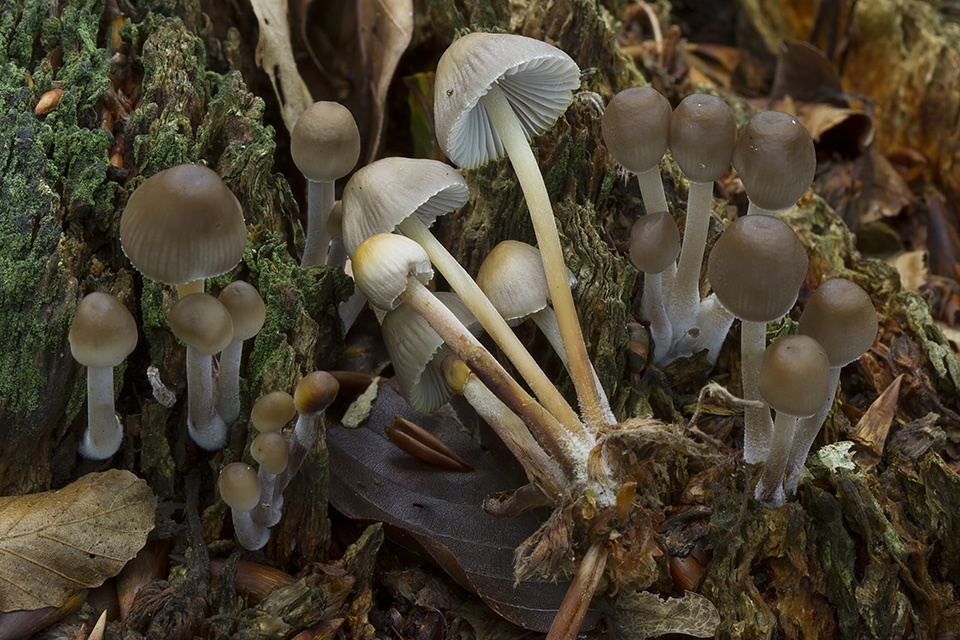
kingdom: Fungi
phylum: Basidiomycota
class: Agaricomycetes
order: Agaricales
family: Mycenaceae
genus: Mycena
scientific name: Mycena inclinata
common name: nikkende huesvamp
